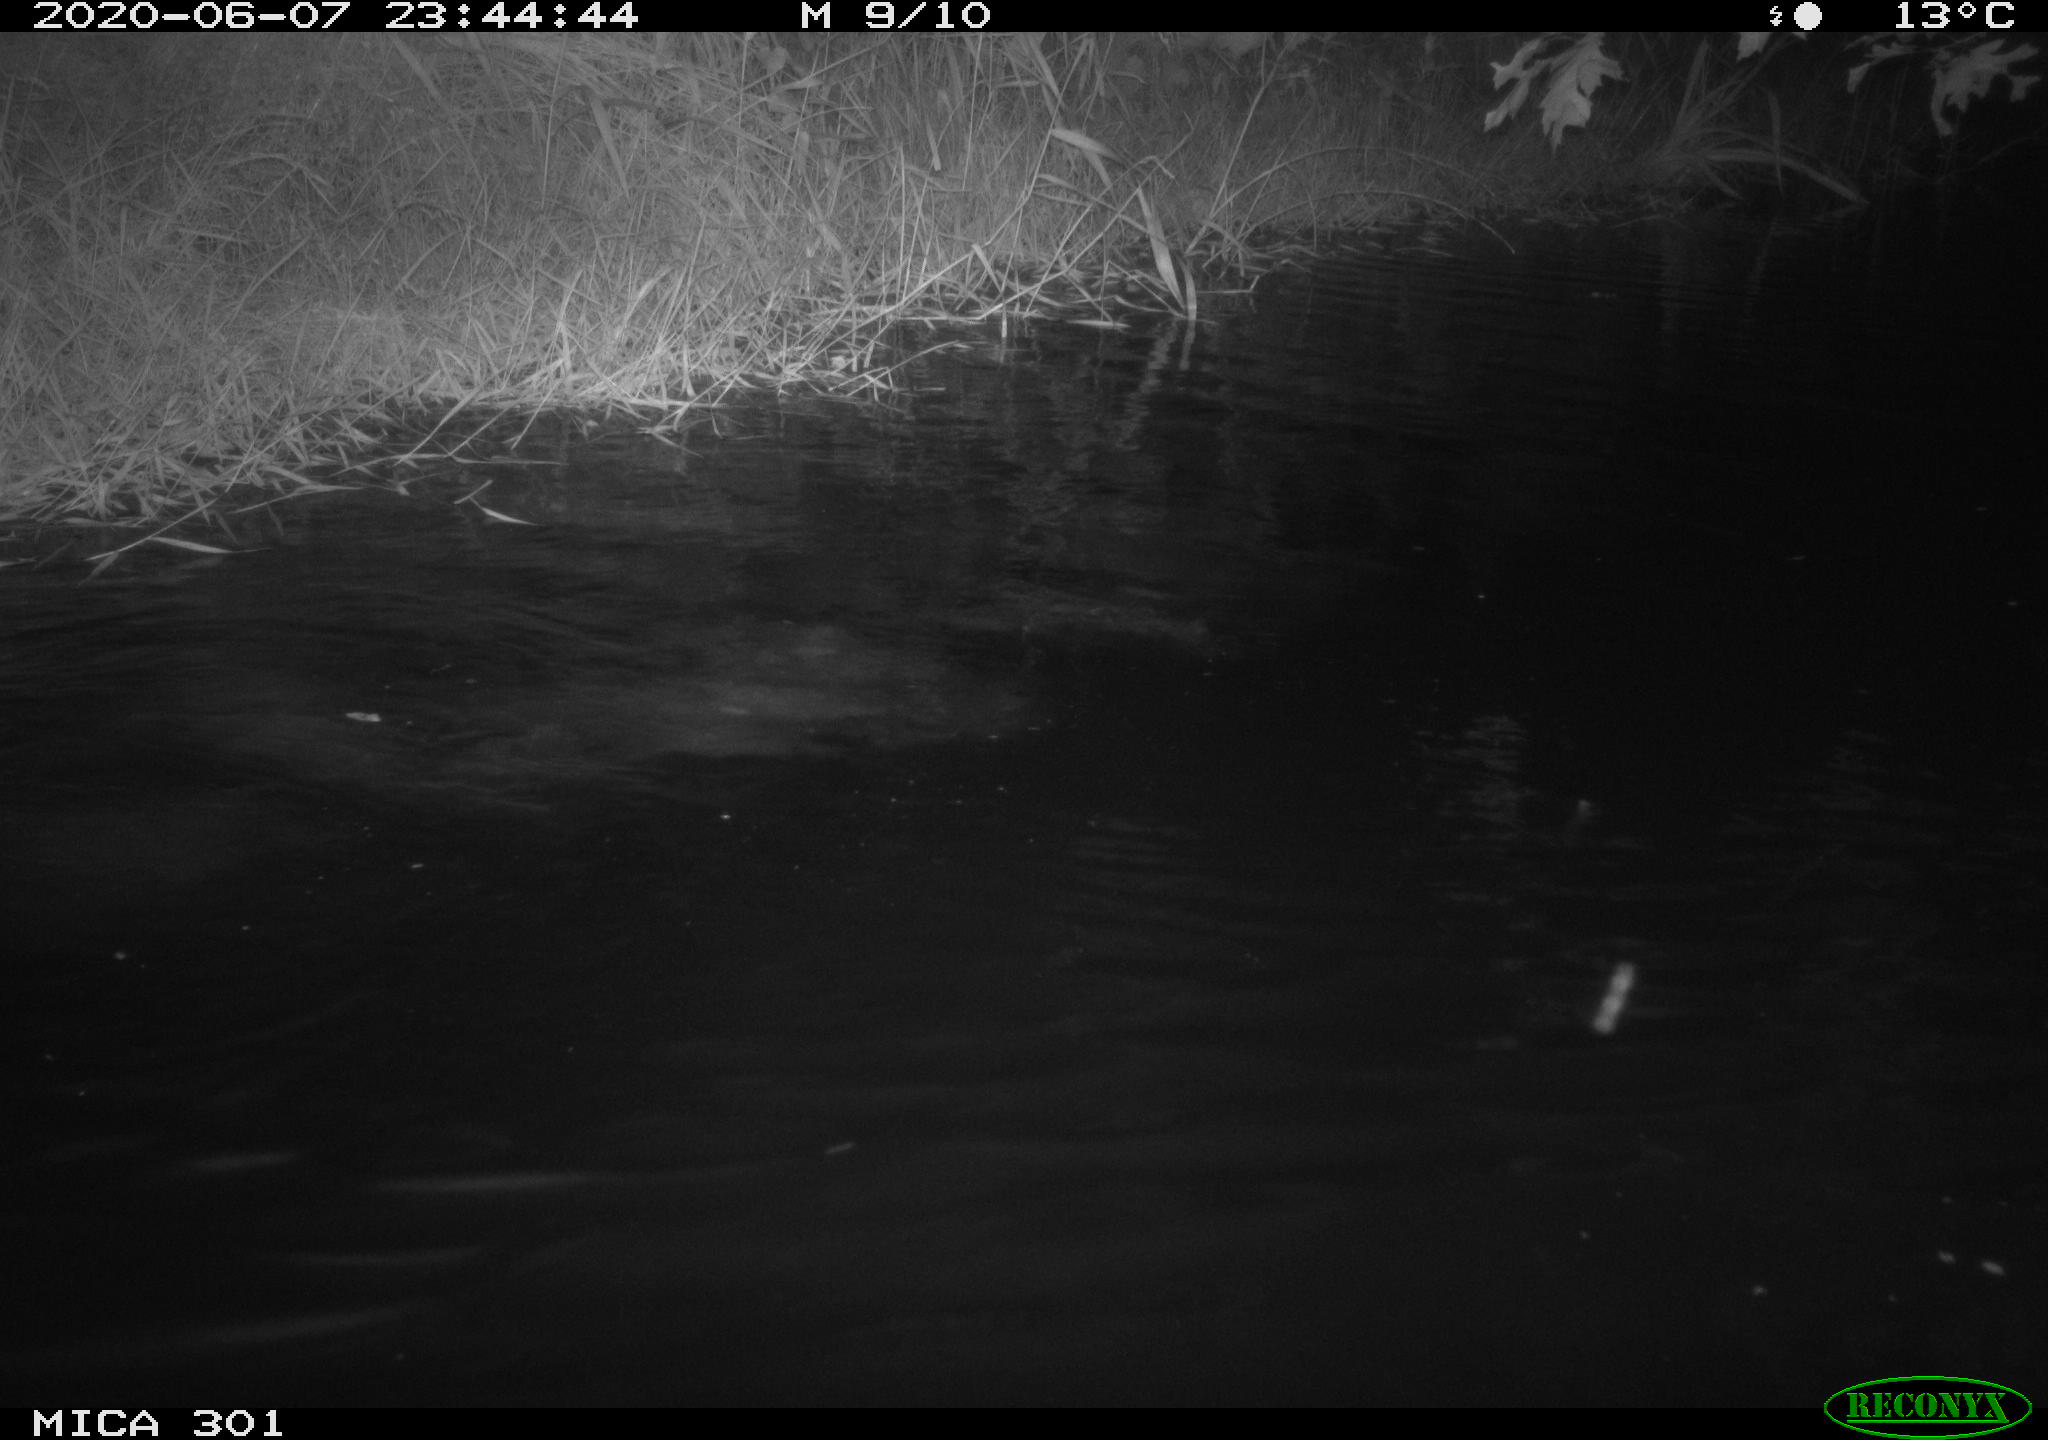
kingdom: Animalia
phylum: Chordata
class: Mammalia
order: Rodentia
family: Castoridae
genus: Castor
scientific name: Castor fiber
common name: Eurasian beaver
